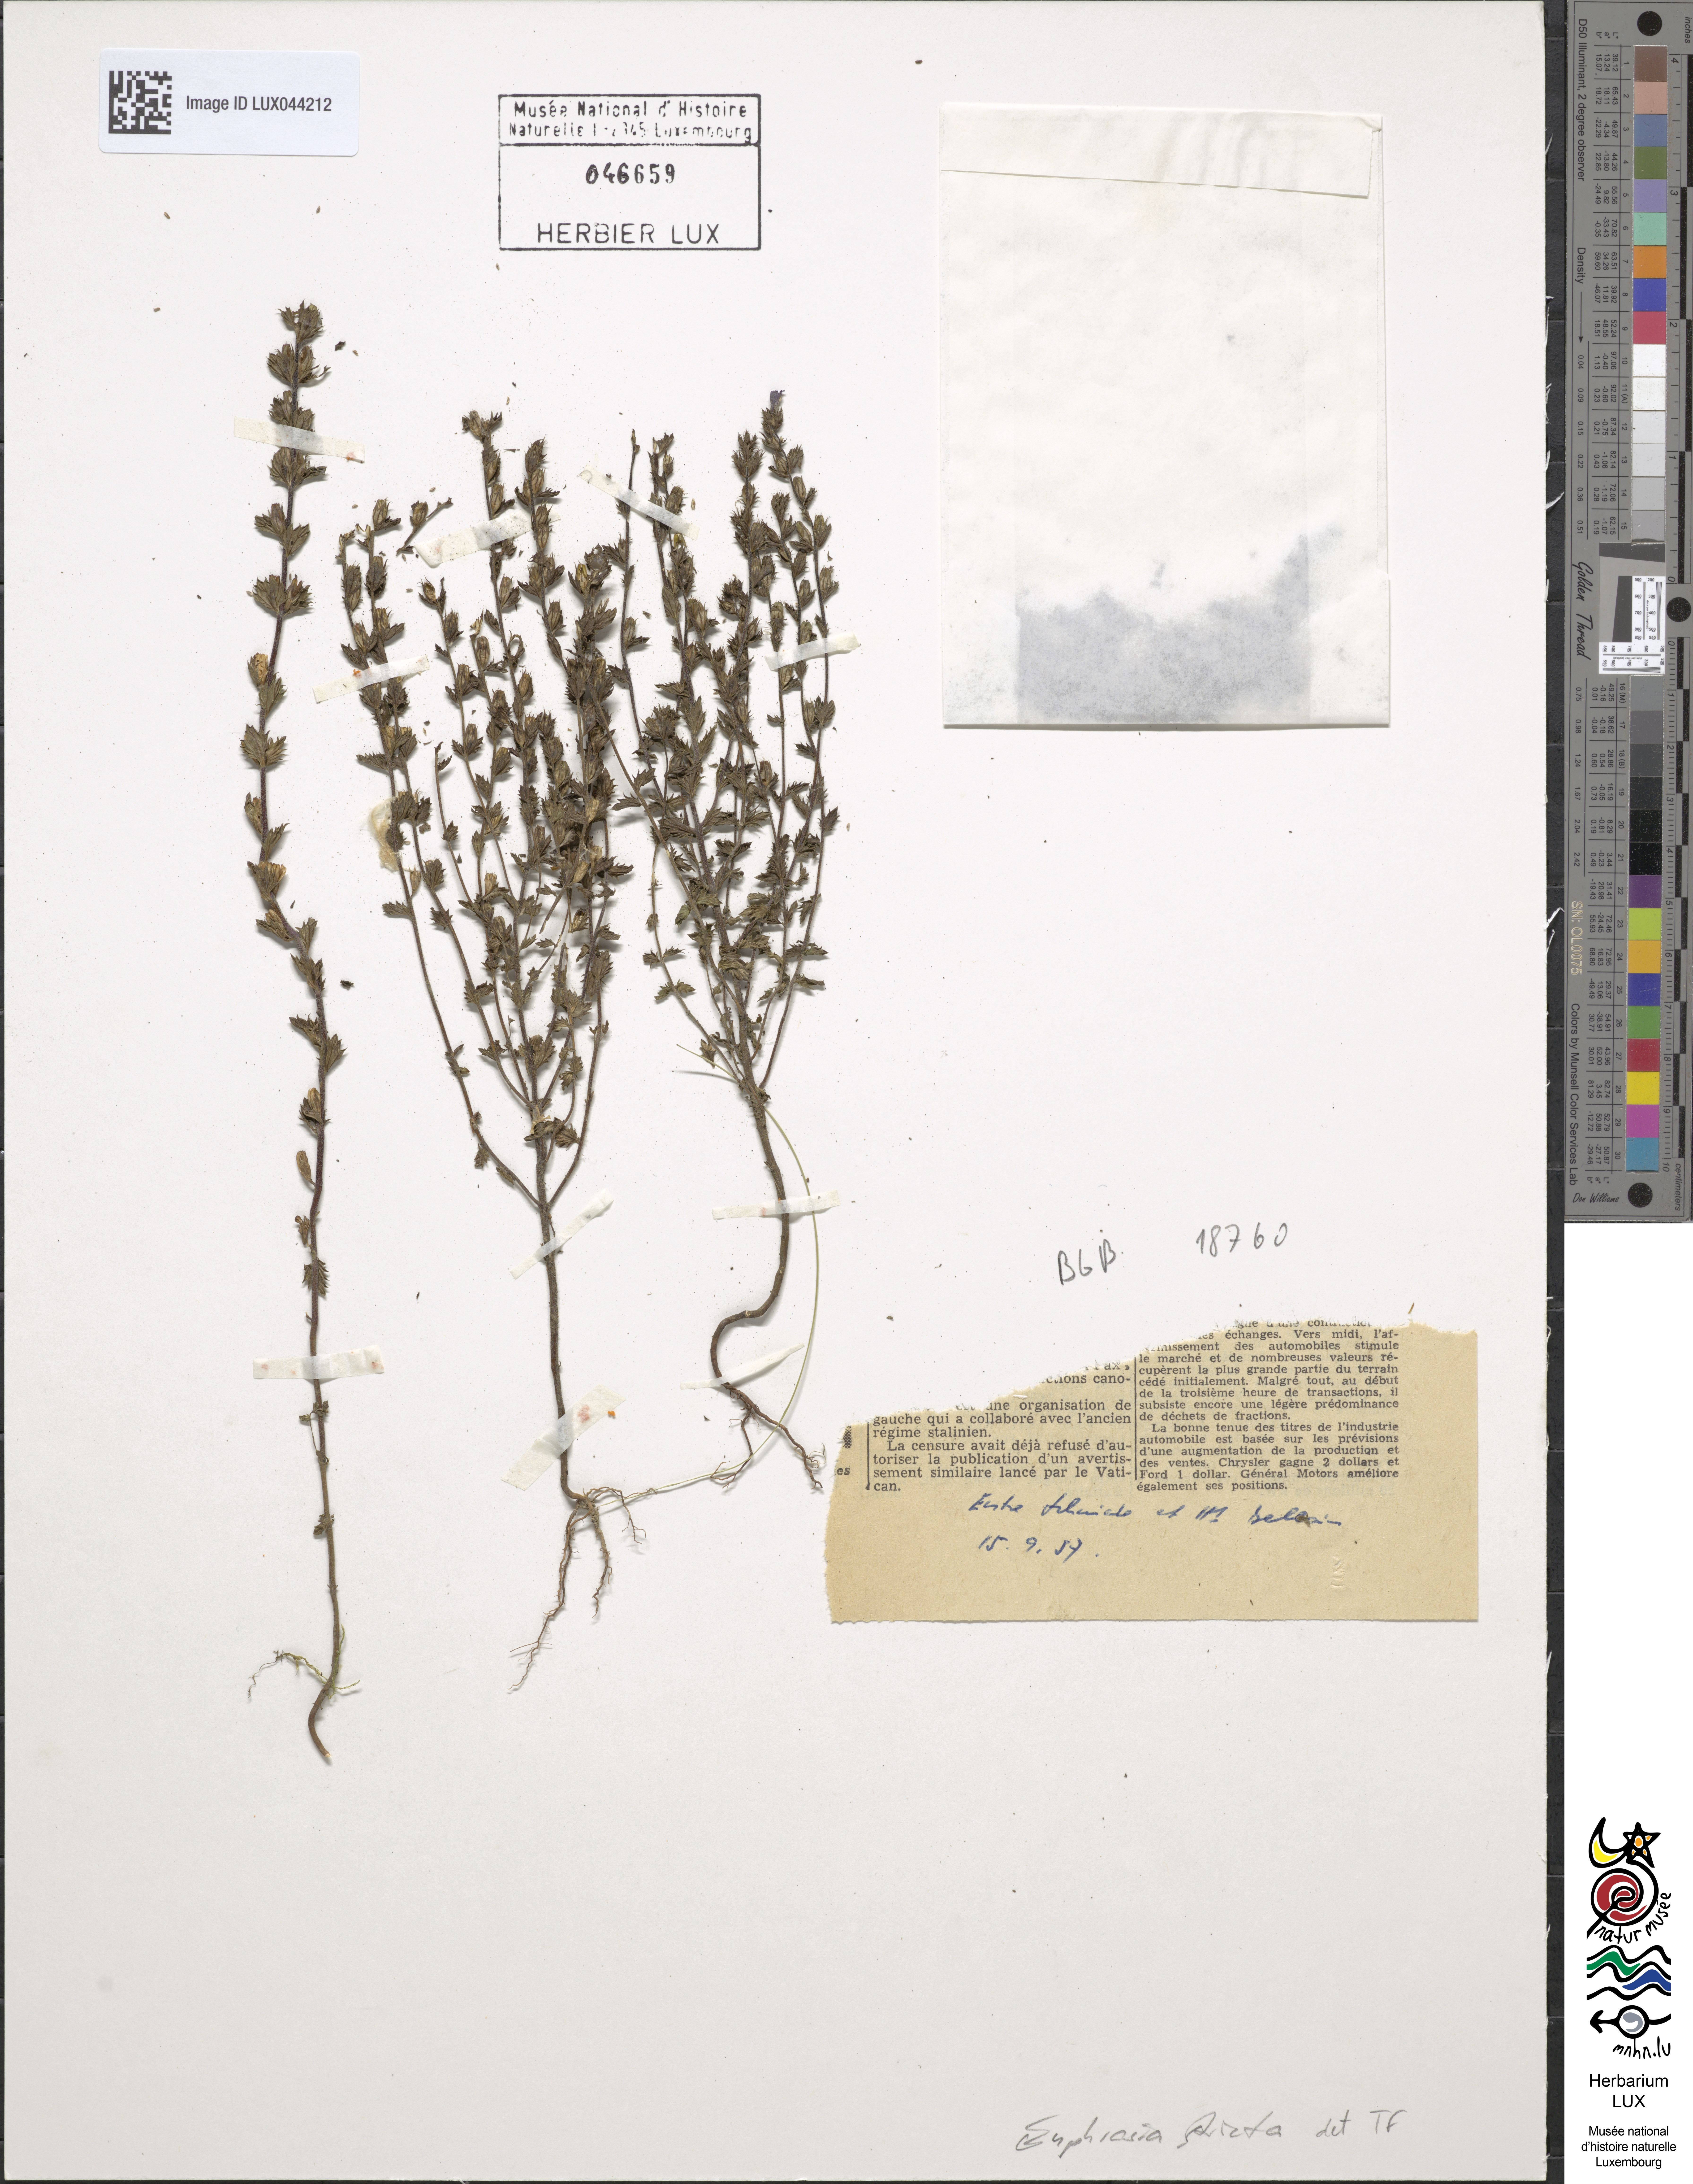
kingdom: Plantae
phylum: Tracheophyta
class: Magnoliopsida
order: Lamiales
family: Orobanchaceae
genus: Euphrasia
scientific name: Euphrasia stricta
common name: Drug eyebright
